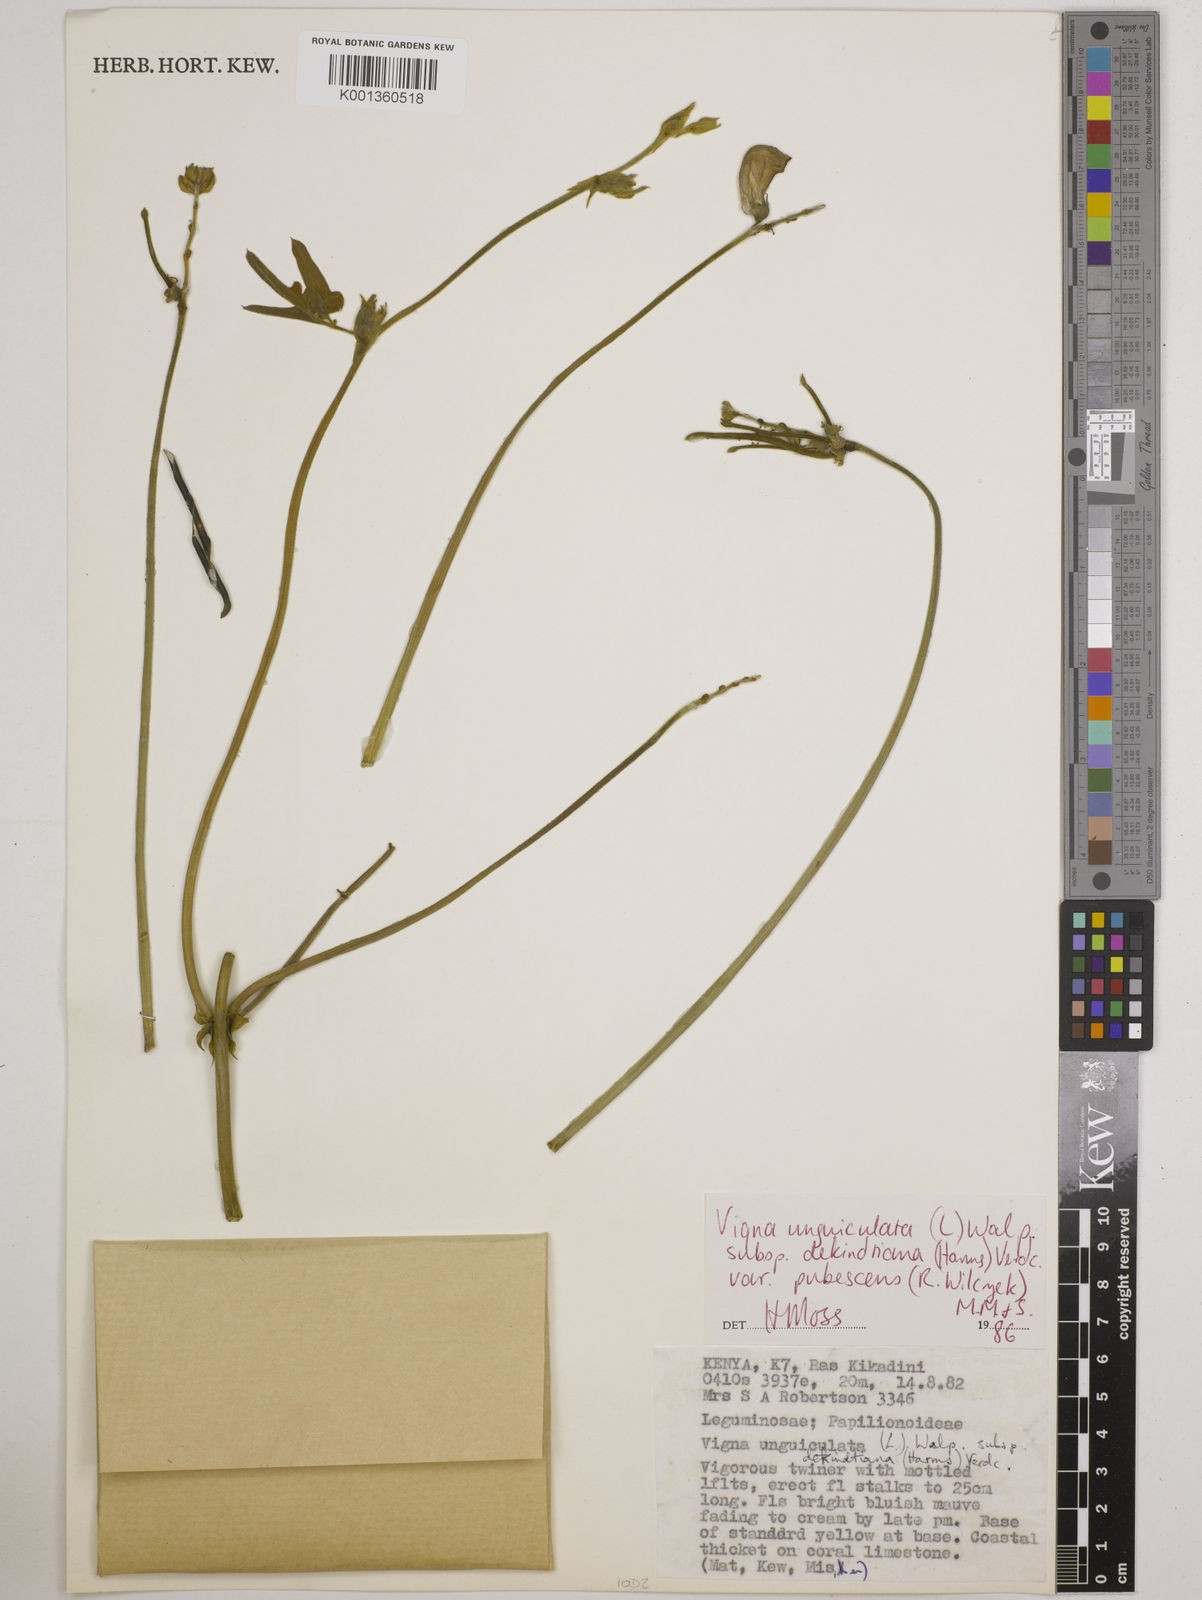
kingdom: Plantae
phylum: Tracheophyta
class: Magnoliopsida
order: Fabales
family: Fabaceae
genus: Vigna
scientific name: Vigna unguiculata
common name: Cowpea
